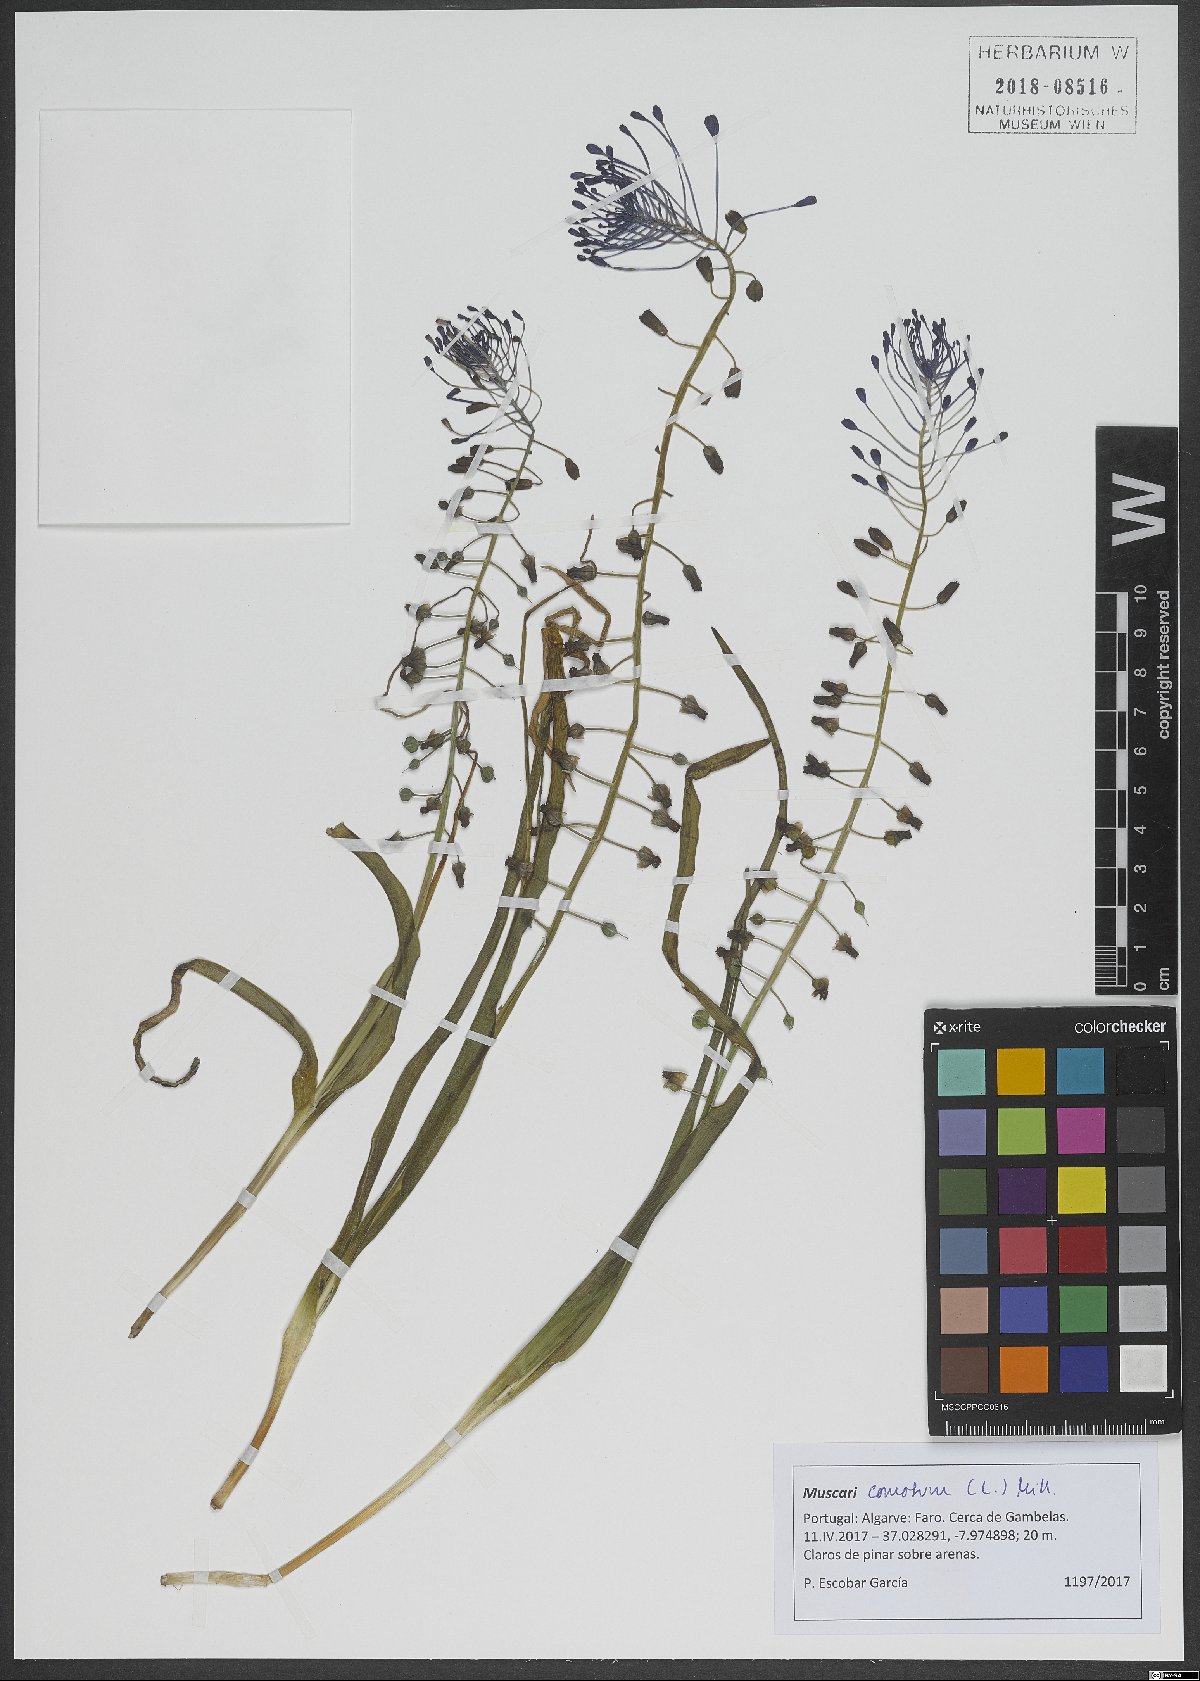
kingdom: Plantae
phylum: Tracheophyta
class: Liliopsida
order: Asparagales
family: Asparagaceae
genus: Muscari
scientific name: Muscari comosum
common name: Tassel hyacinth
